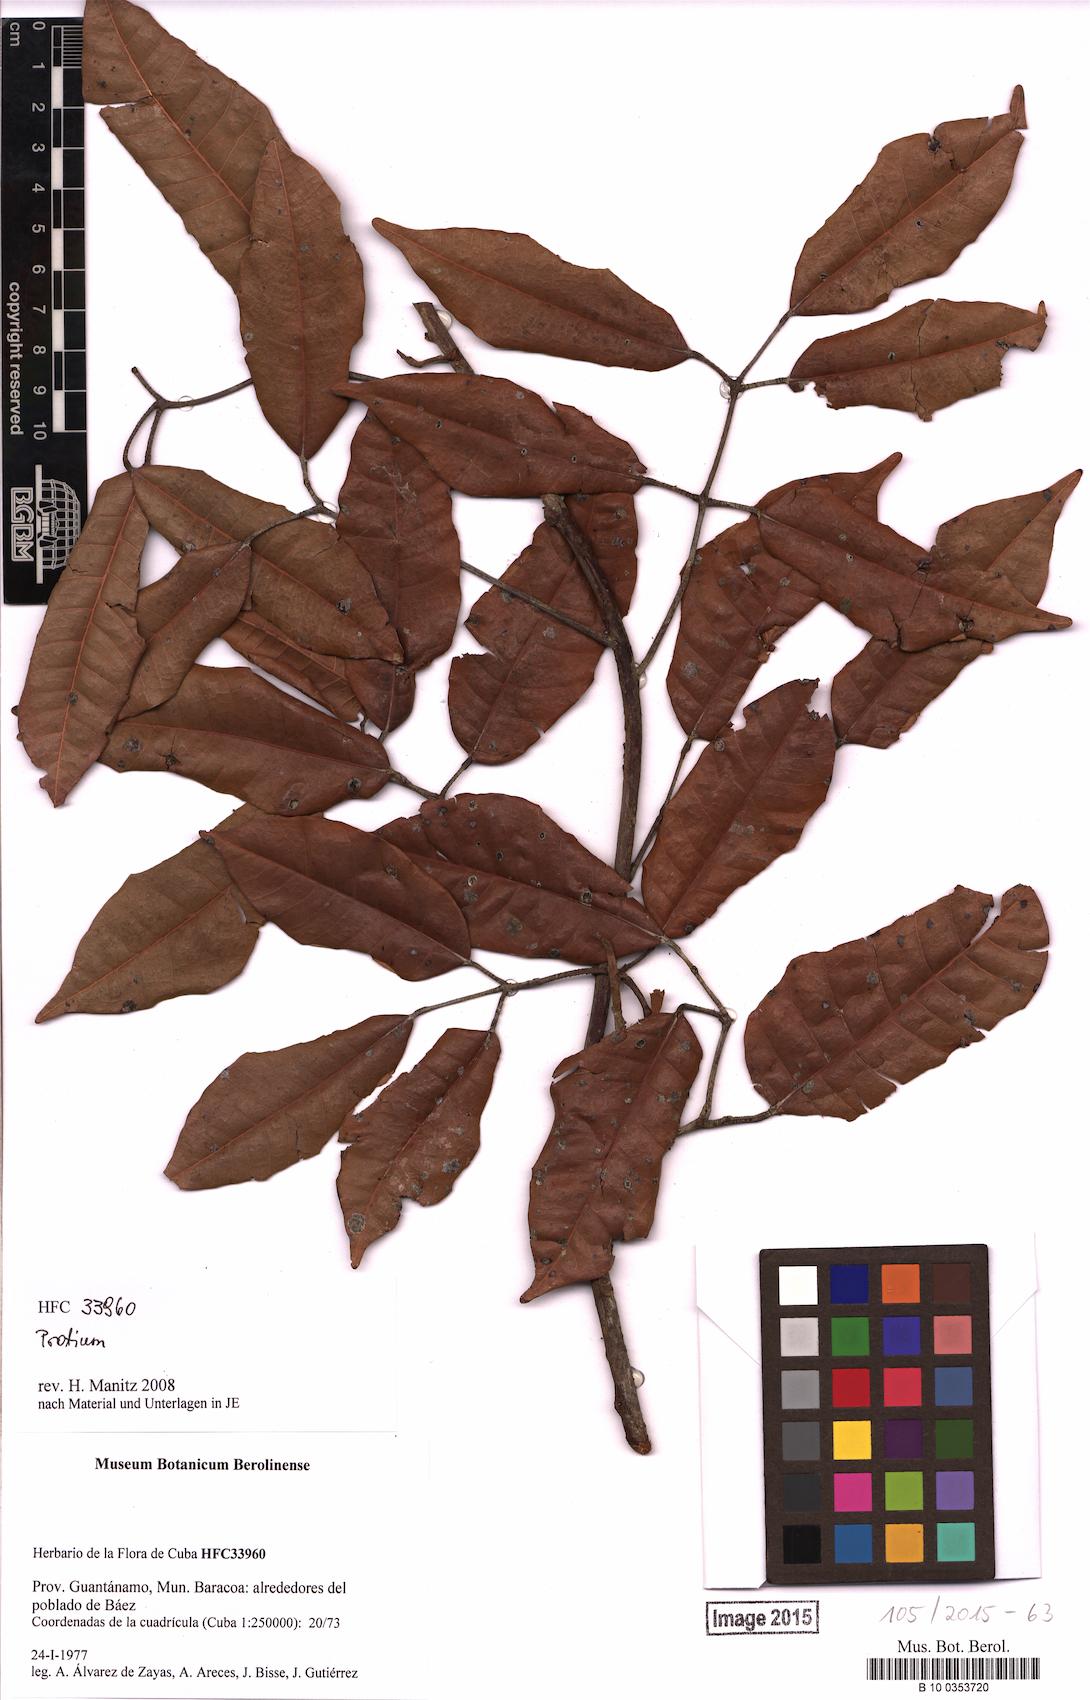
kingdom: Plantae
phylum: Tracheophyta
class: Magnoliopsida
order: Sapindales
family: Burseraceae
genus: Protium
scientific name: Protium
